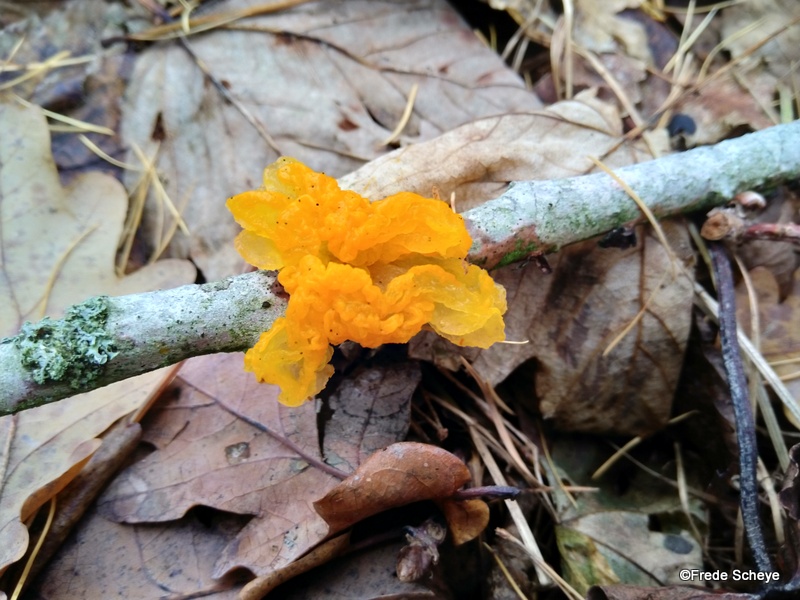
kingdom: Fungi
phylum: Basidiomycota
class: Tremellomycetes
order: Tremellales
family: Tremellaceae
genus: Tremella
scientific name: Tremella mesenterica
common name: gul bævresvamp
